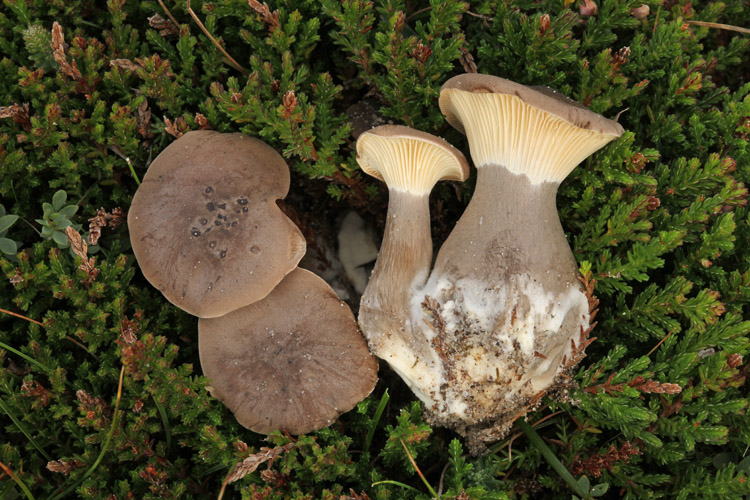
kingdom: Fungi
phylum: Basidiomycota
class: Agaricomycetes
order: Agaricales
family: Hygrophoraceae
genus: Ampulloclitocybe
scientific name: Ampulloclitocybe clavipes
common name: køllefod
